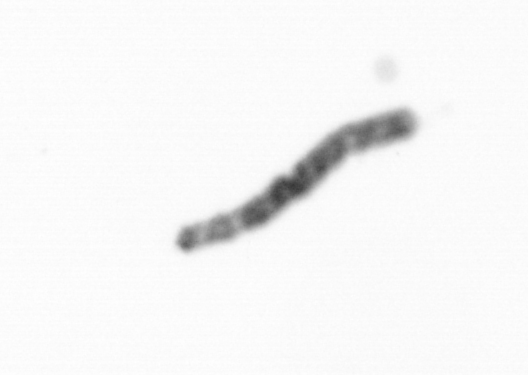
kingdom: Chromista
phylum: Ochrophyta
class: Bacillariophyceae
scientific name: Bacillariophyceae
